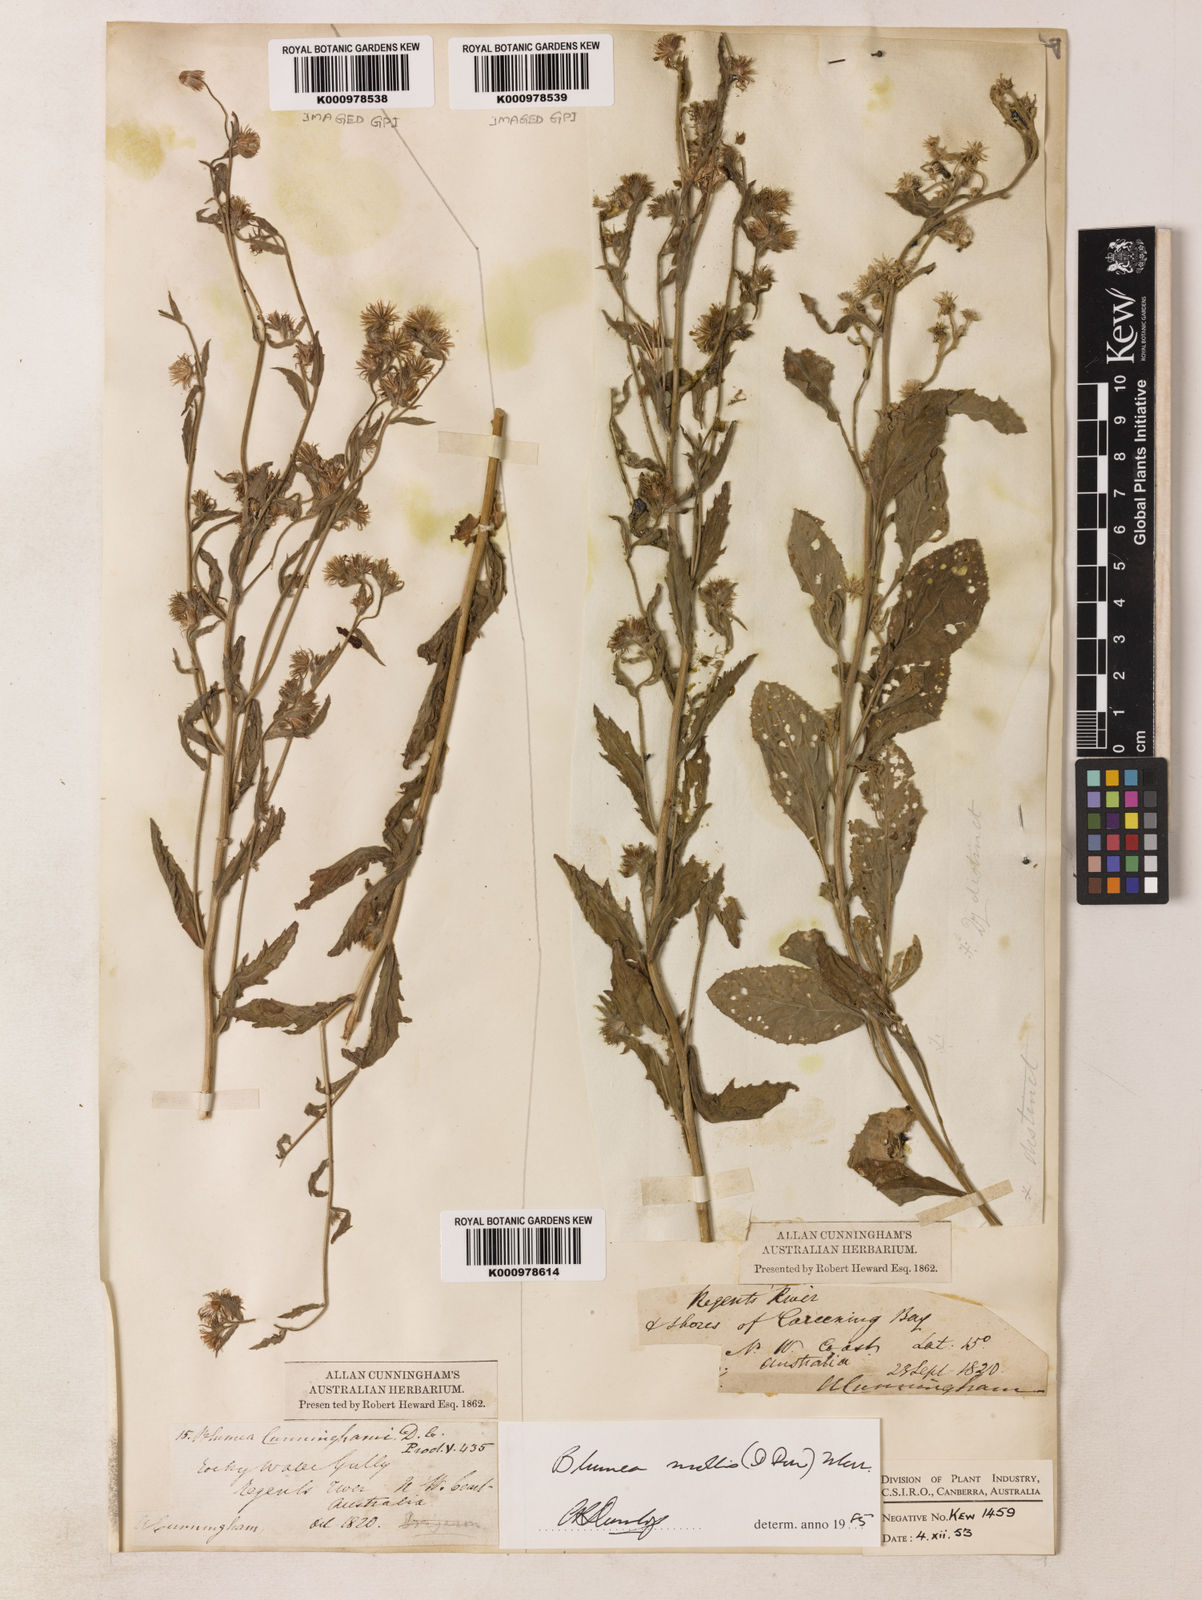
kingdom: Plantae
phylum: Tracheophyta
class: Magnoliopsida
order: Asterales
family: Asteraceae
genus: Blumea
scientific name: Blumea axillaris
